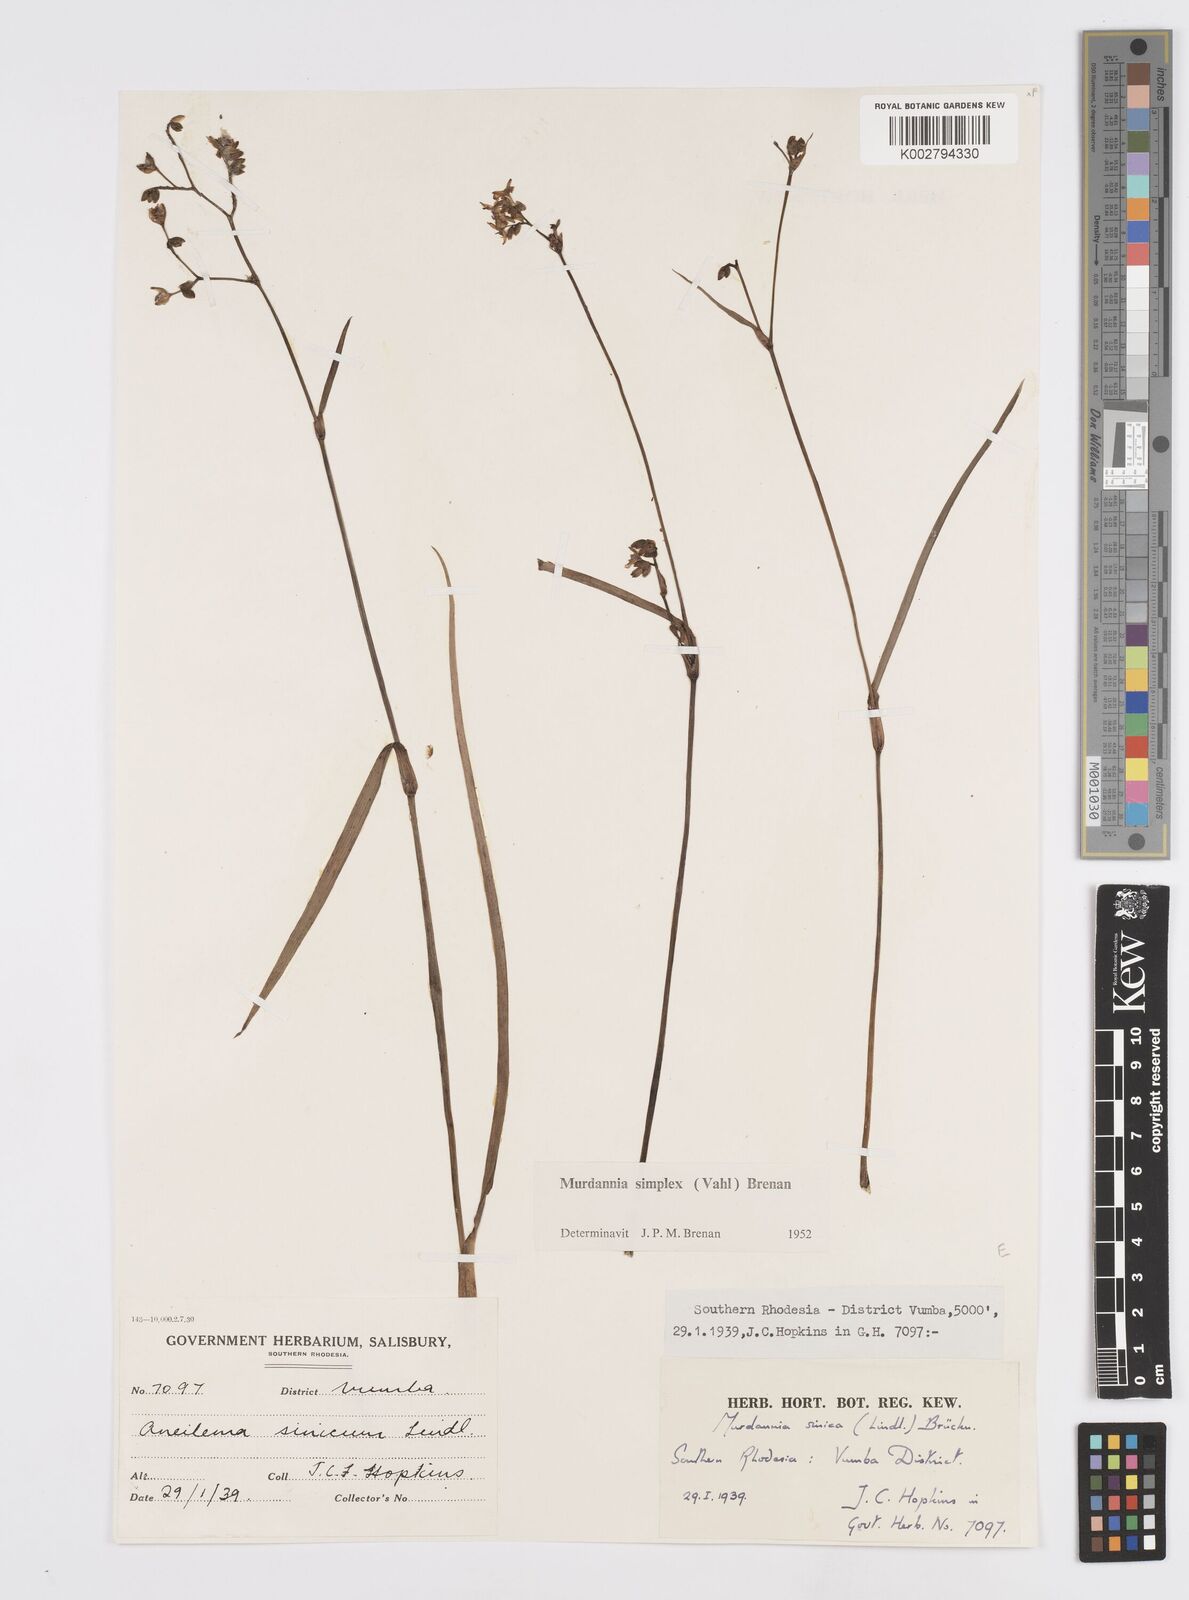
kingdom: Plantae
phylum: Tracheophyta
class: Liliopsida
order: Commelinales
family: Commelinaceae
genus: Murdannia
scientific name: Murdannia simplex
